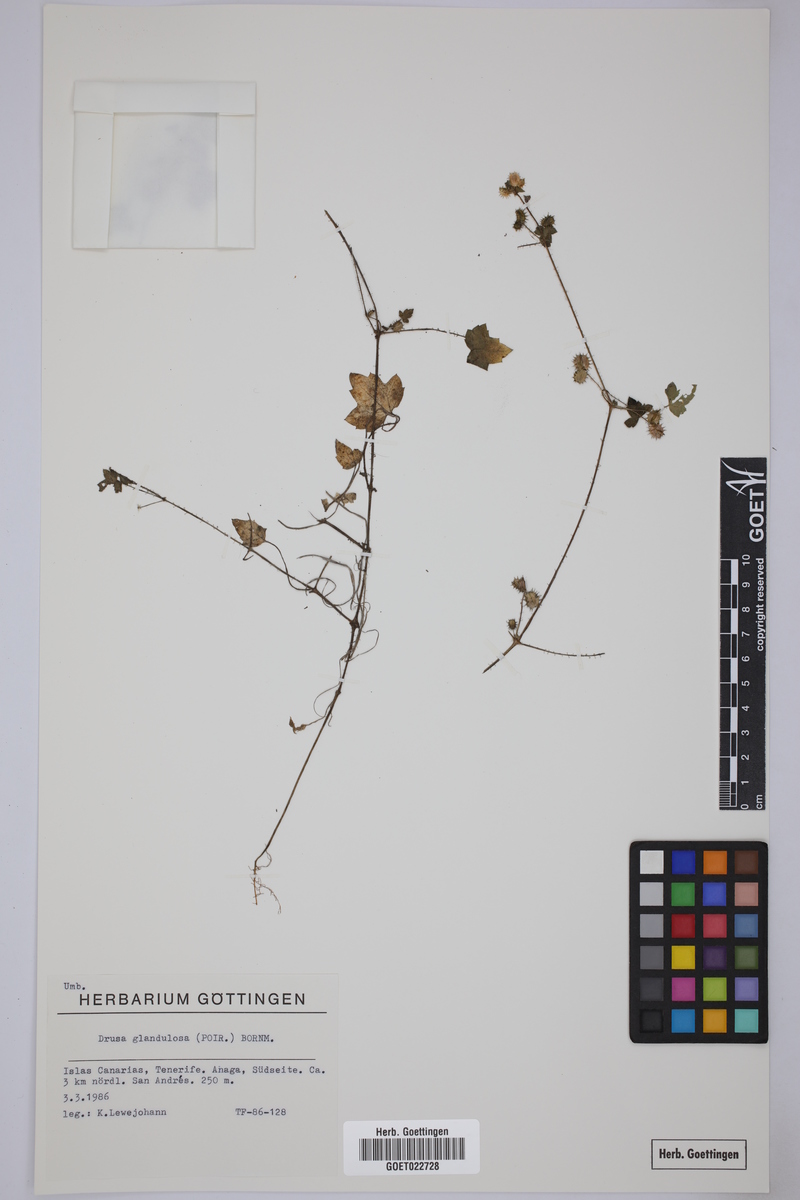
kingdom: Plantae
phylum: Tracheophyta
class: Magnoliopsida
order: Apiales
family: Apiaceae
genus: Drusa
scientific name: Drusa glandulosa
